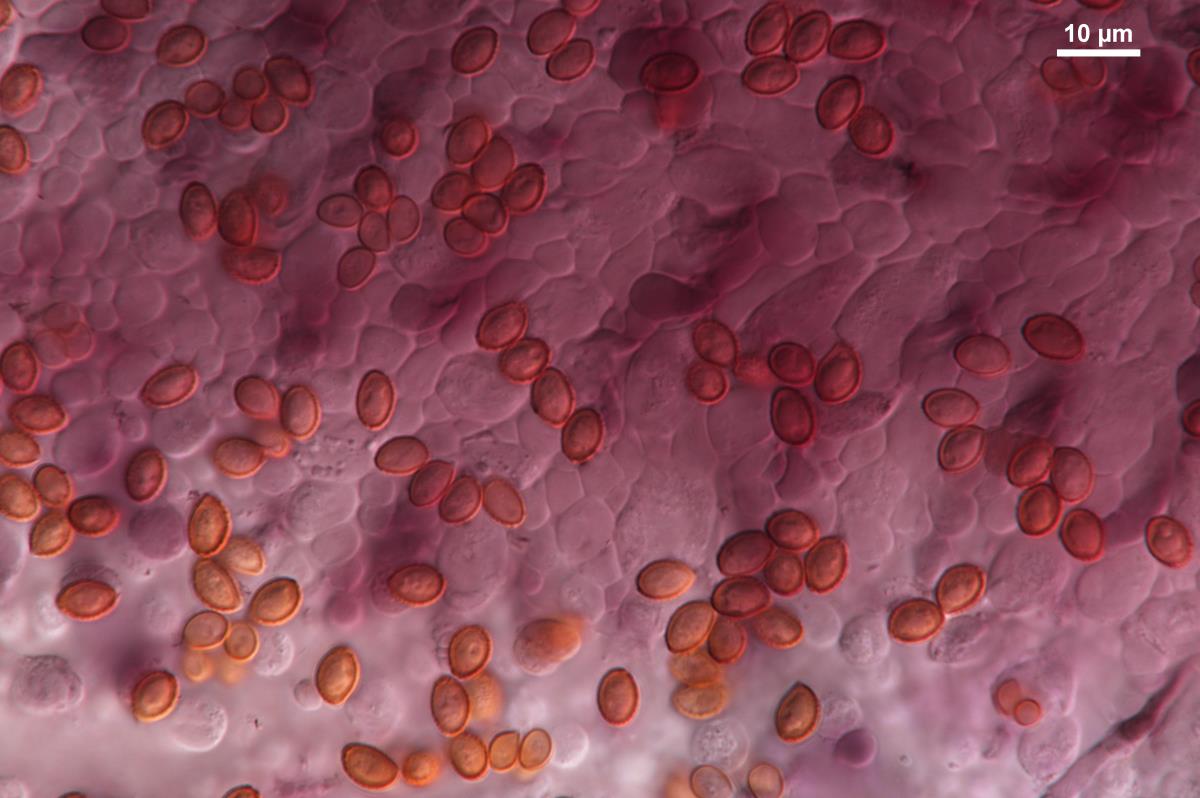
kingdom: Fungi
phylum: Basidiomycota
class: Agaricomycetes
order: Agaricales
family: Cortinariaceae
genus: Cortinarius
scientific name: Cortinarius alienatus
